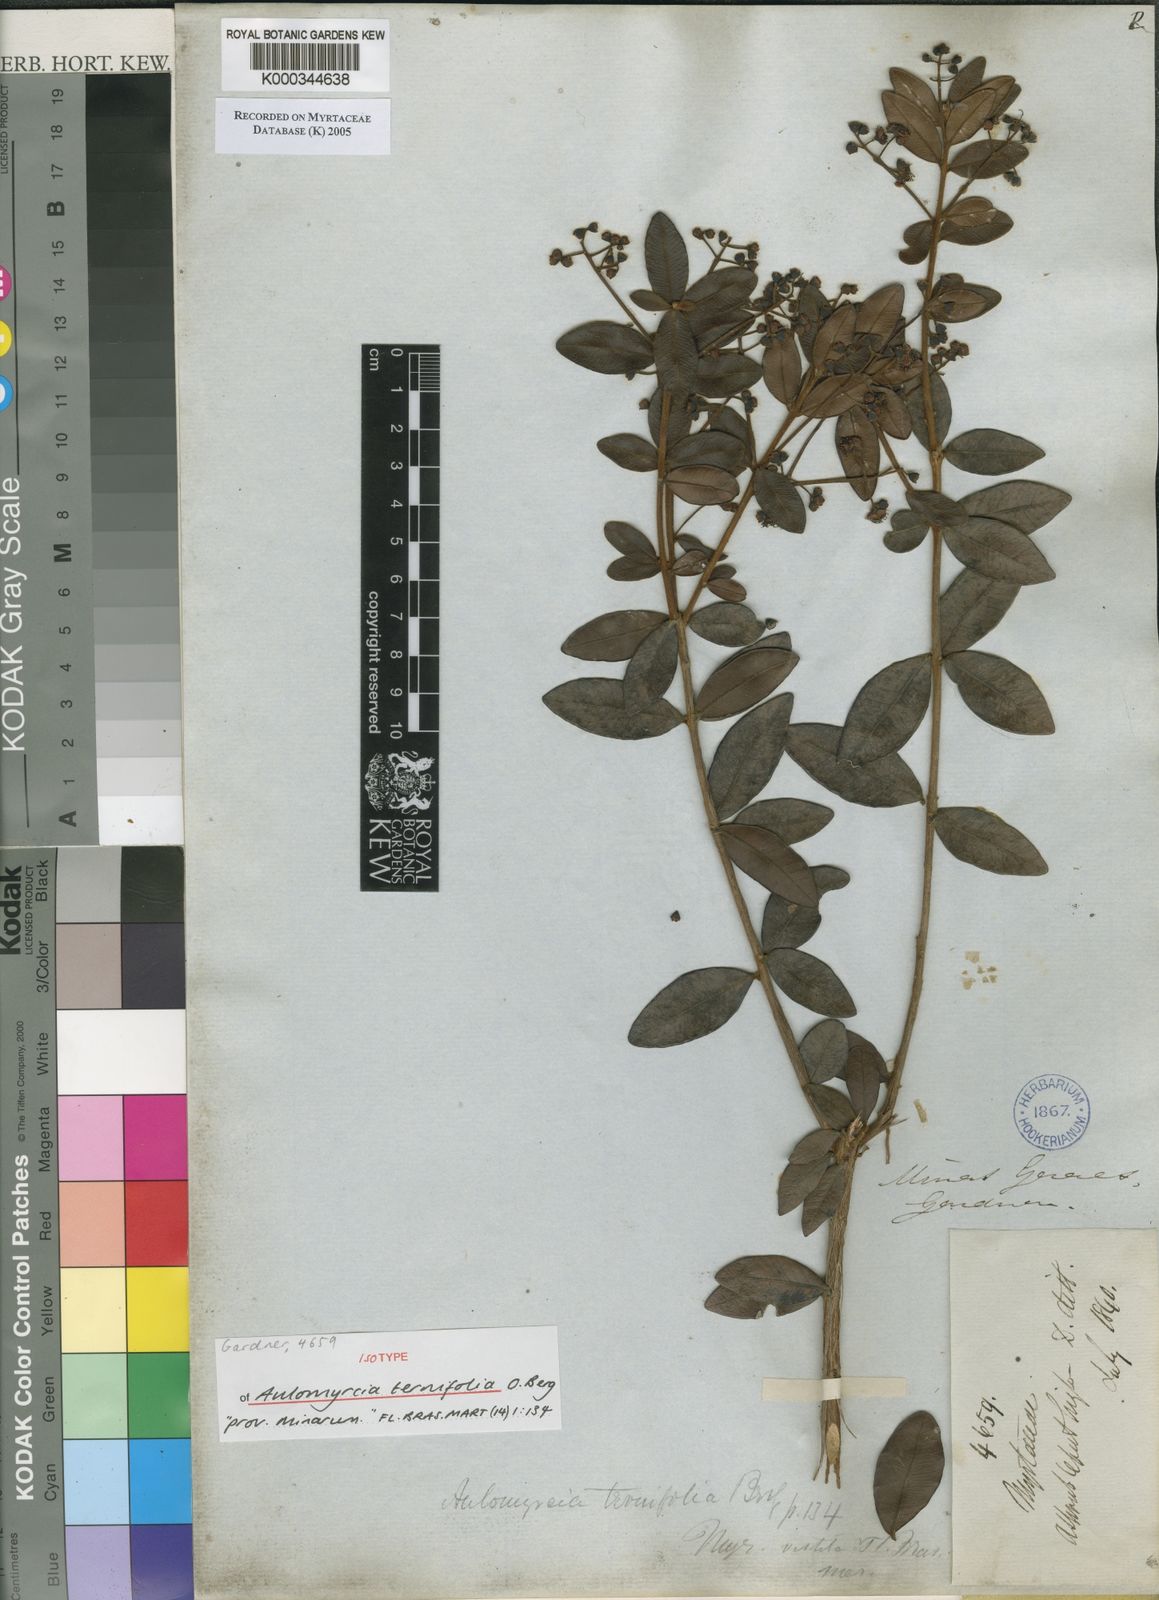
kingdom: Plantae
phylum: Tracheophyta
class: Magnoliopsida
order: Myrtales
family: Myrtaceae
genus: Myrcia
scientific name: Myrcia rufipes
